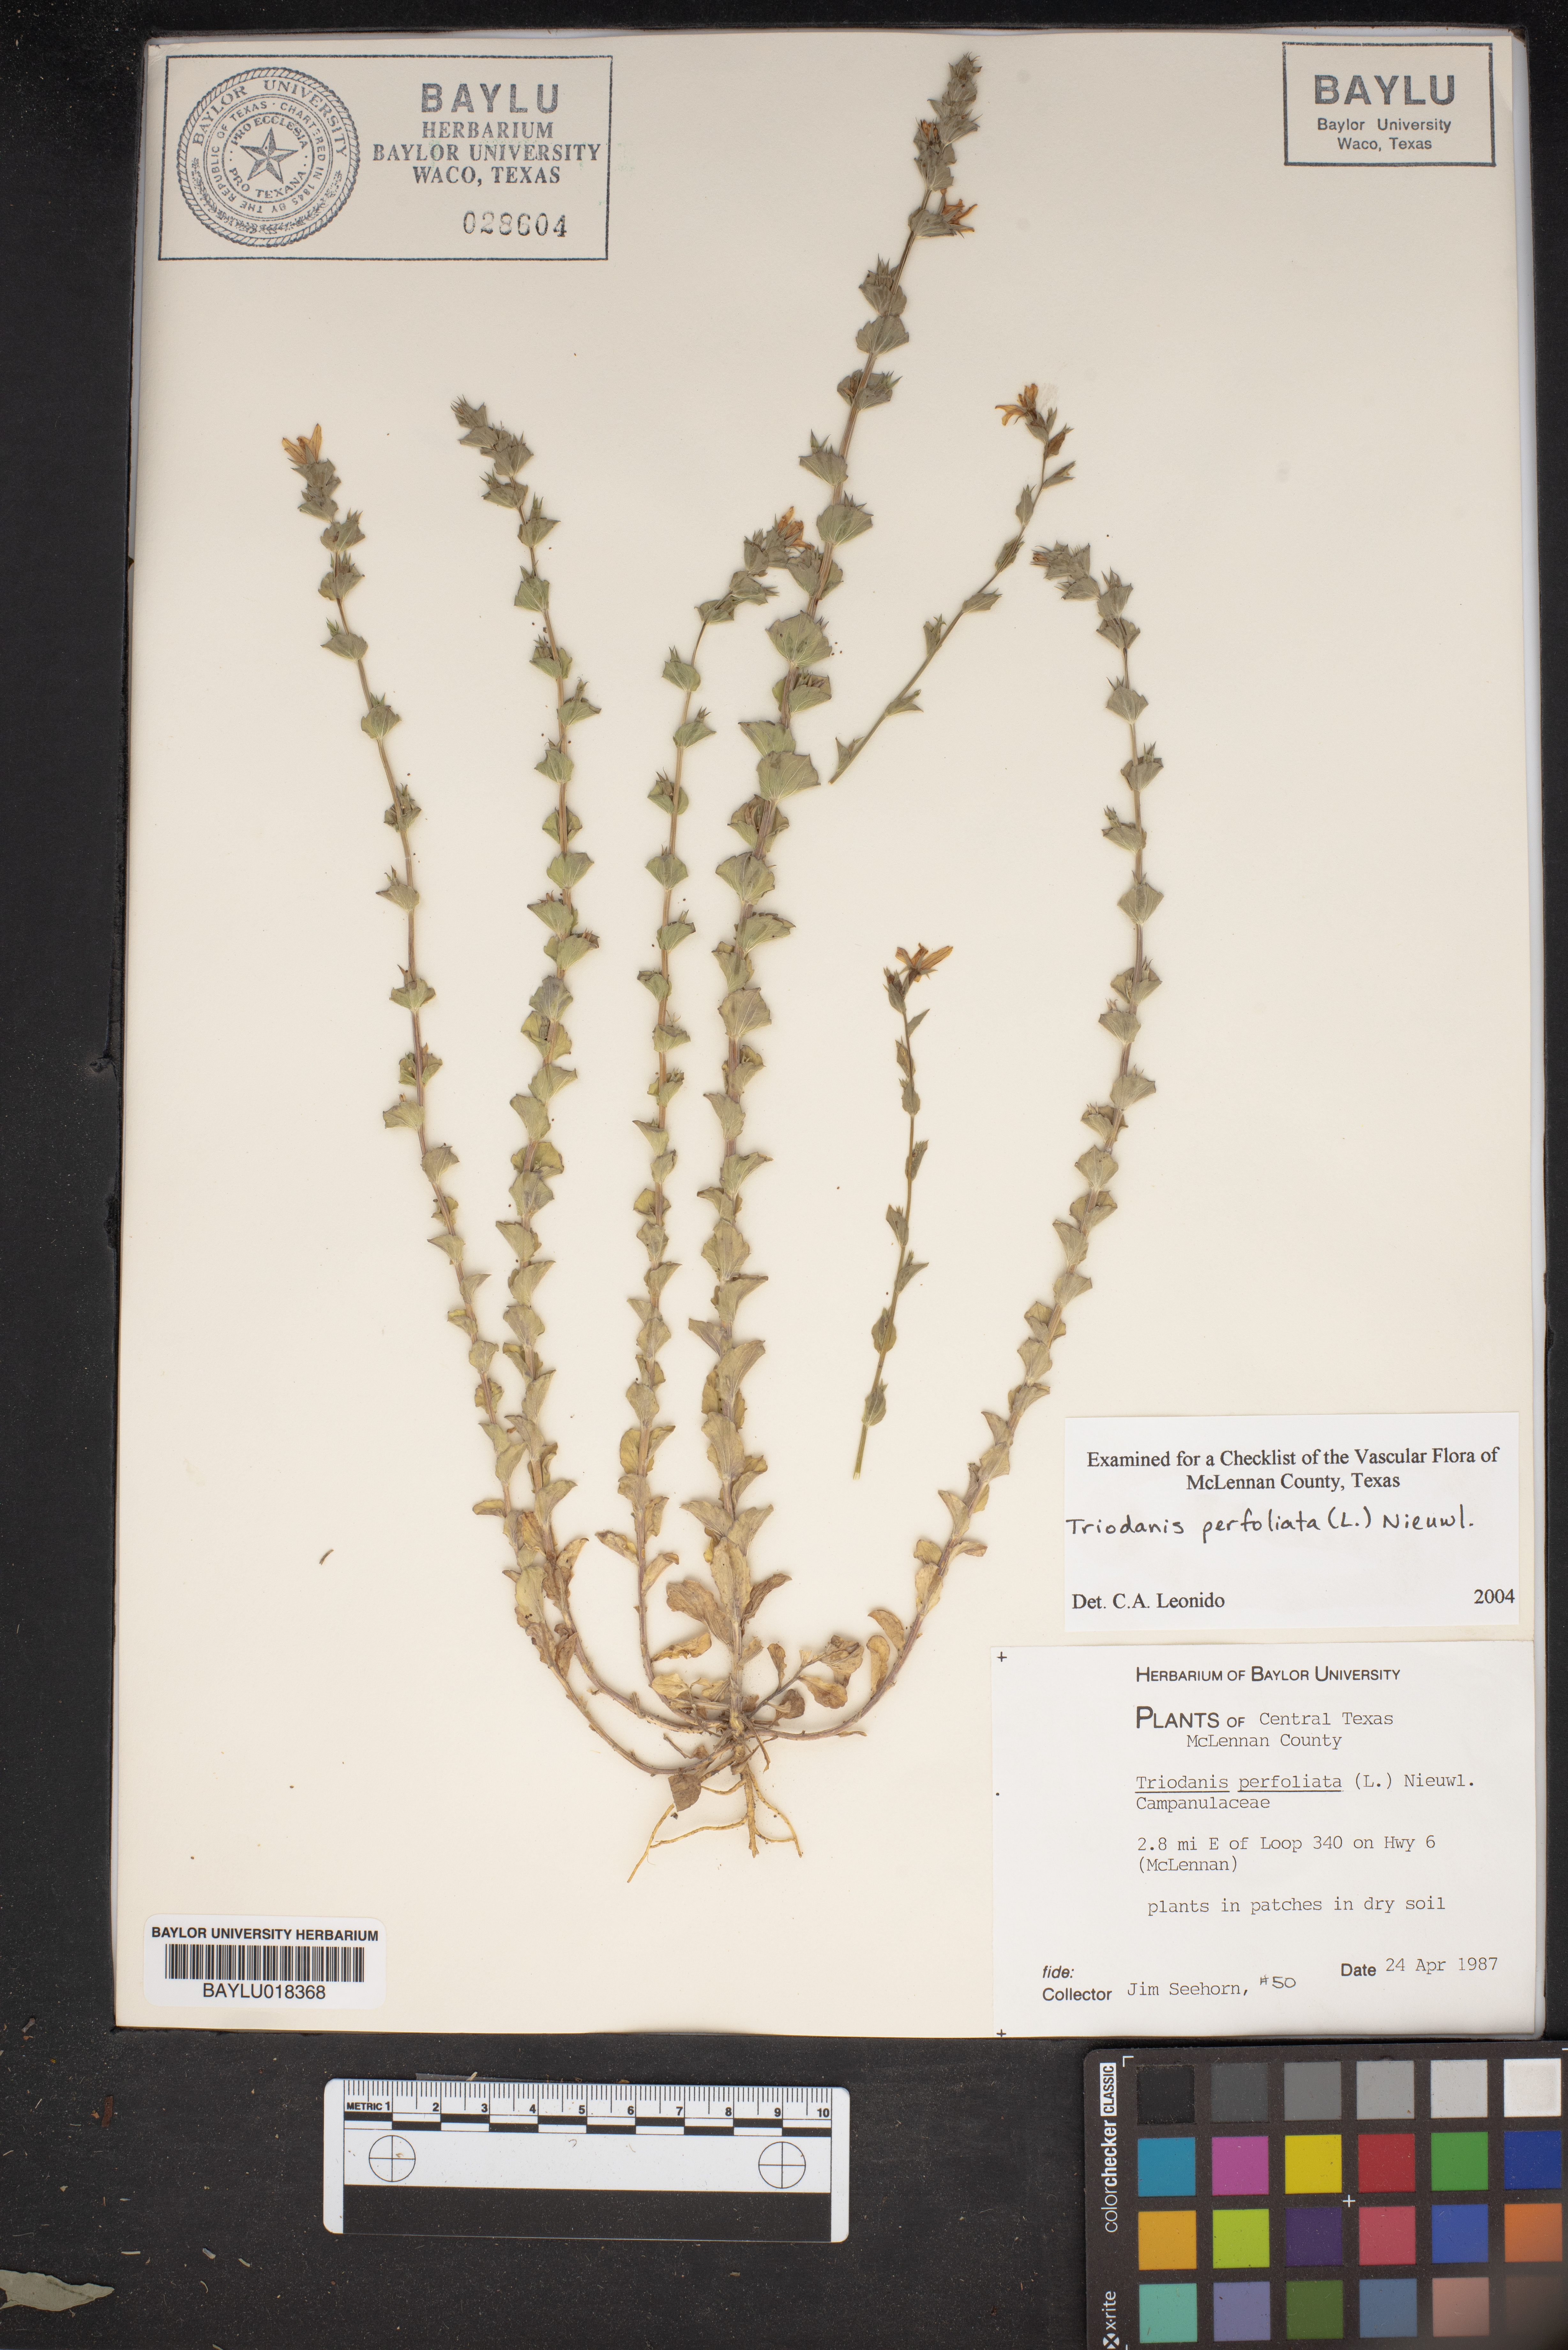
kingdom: Plantae
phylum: Tracheophyta
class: Magnoliopsida
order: Asterales
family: Campanulaceae
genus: Triodanis
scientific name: Triodanis perfoliata
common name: Clasping venus' looking-glass
